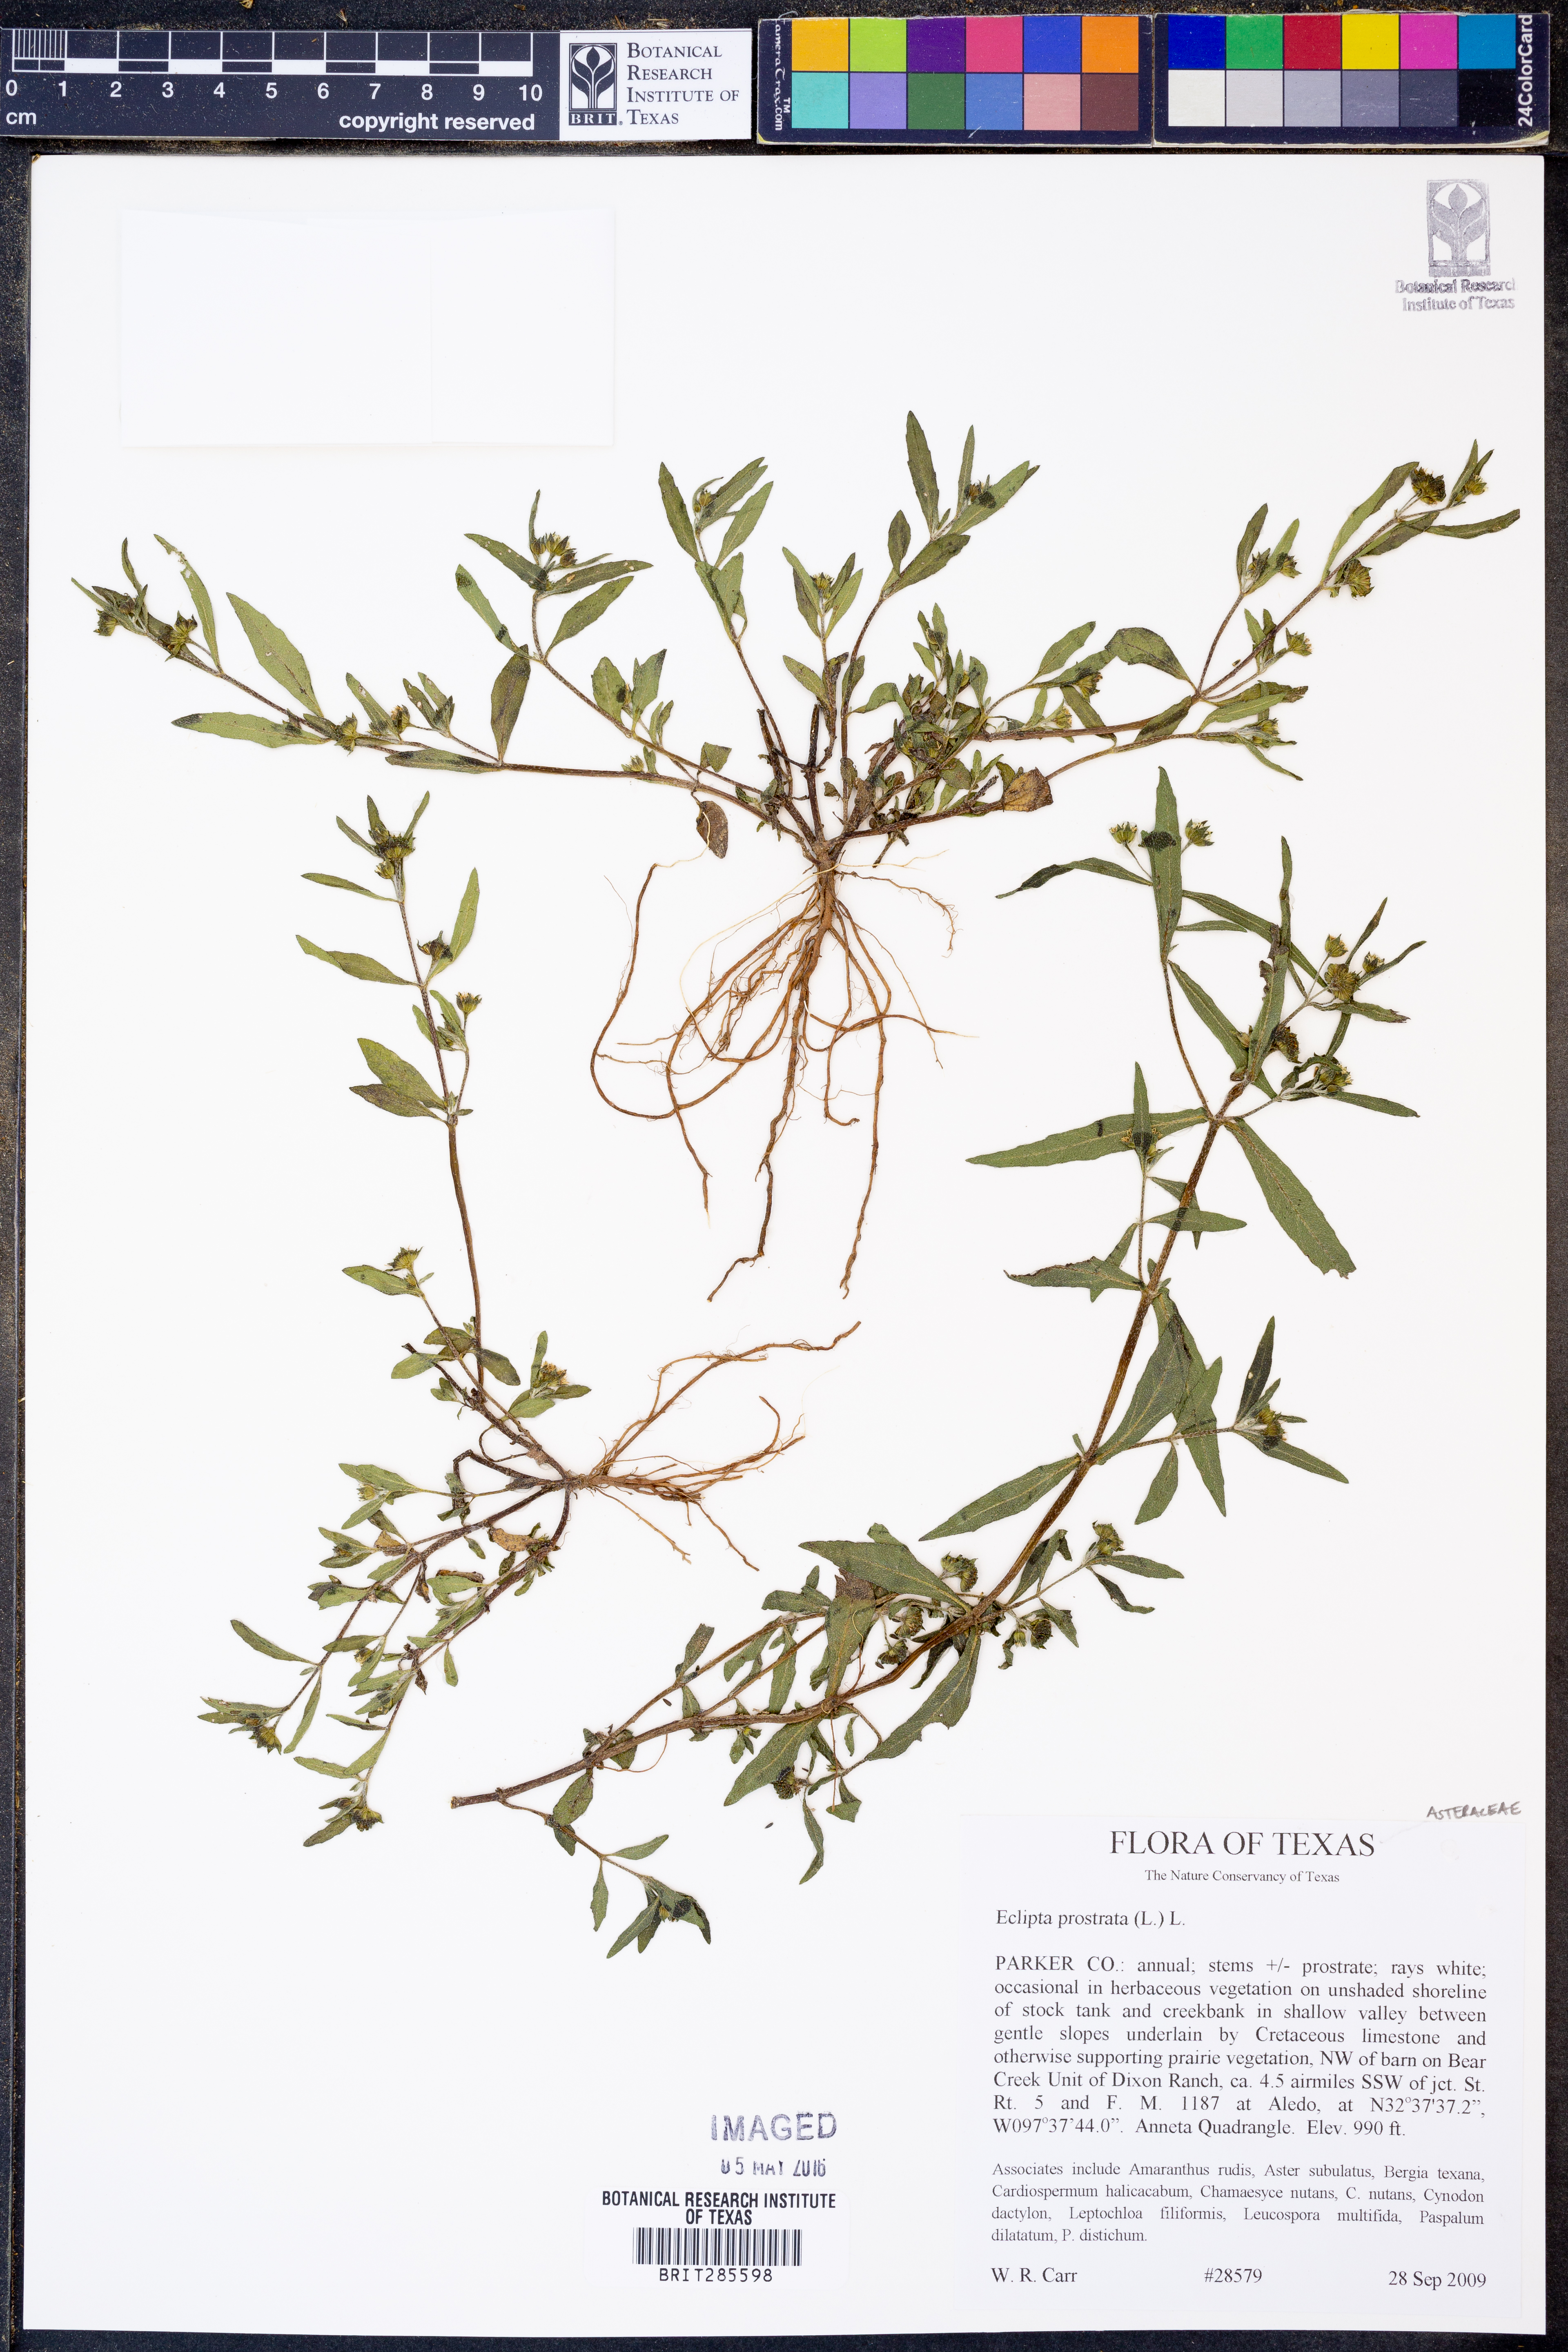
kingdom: Plantae
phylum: Tracheophyta
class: Magnoliopsida
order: Asterales
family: Asteraceae
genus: Eclipta
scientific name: Eclipta prostrata
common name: False daisy
